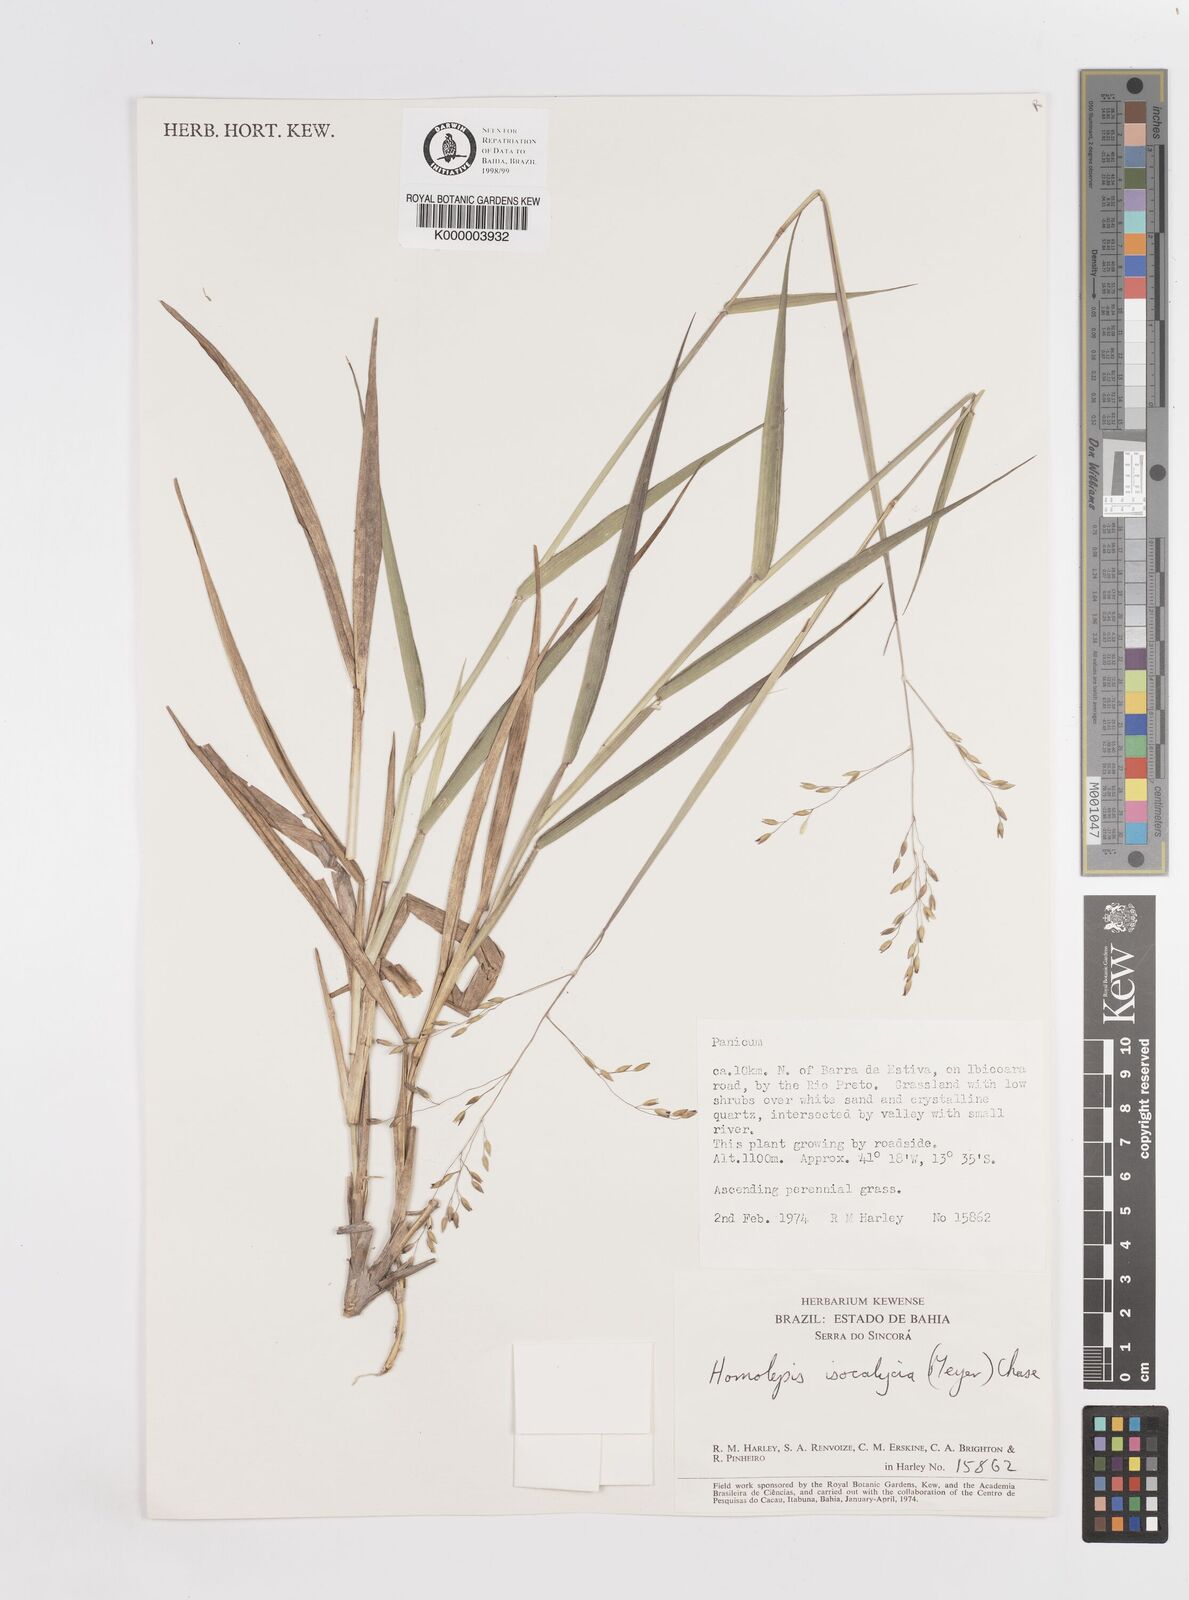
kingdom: Plantae
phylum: Tracheophyta
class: Liliopsida
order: Poales
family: Poaceae
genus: Homolepis
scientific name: Homolepis
